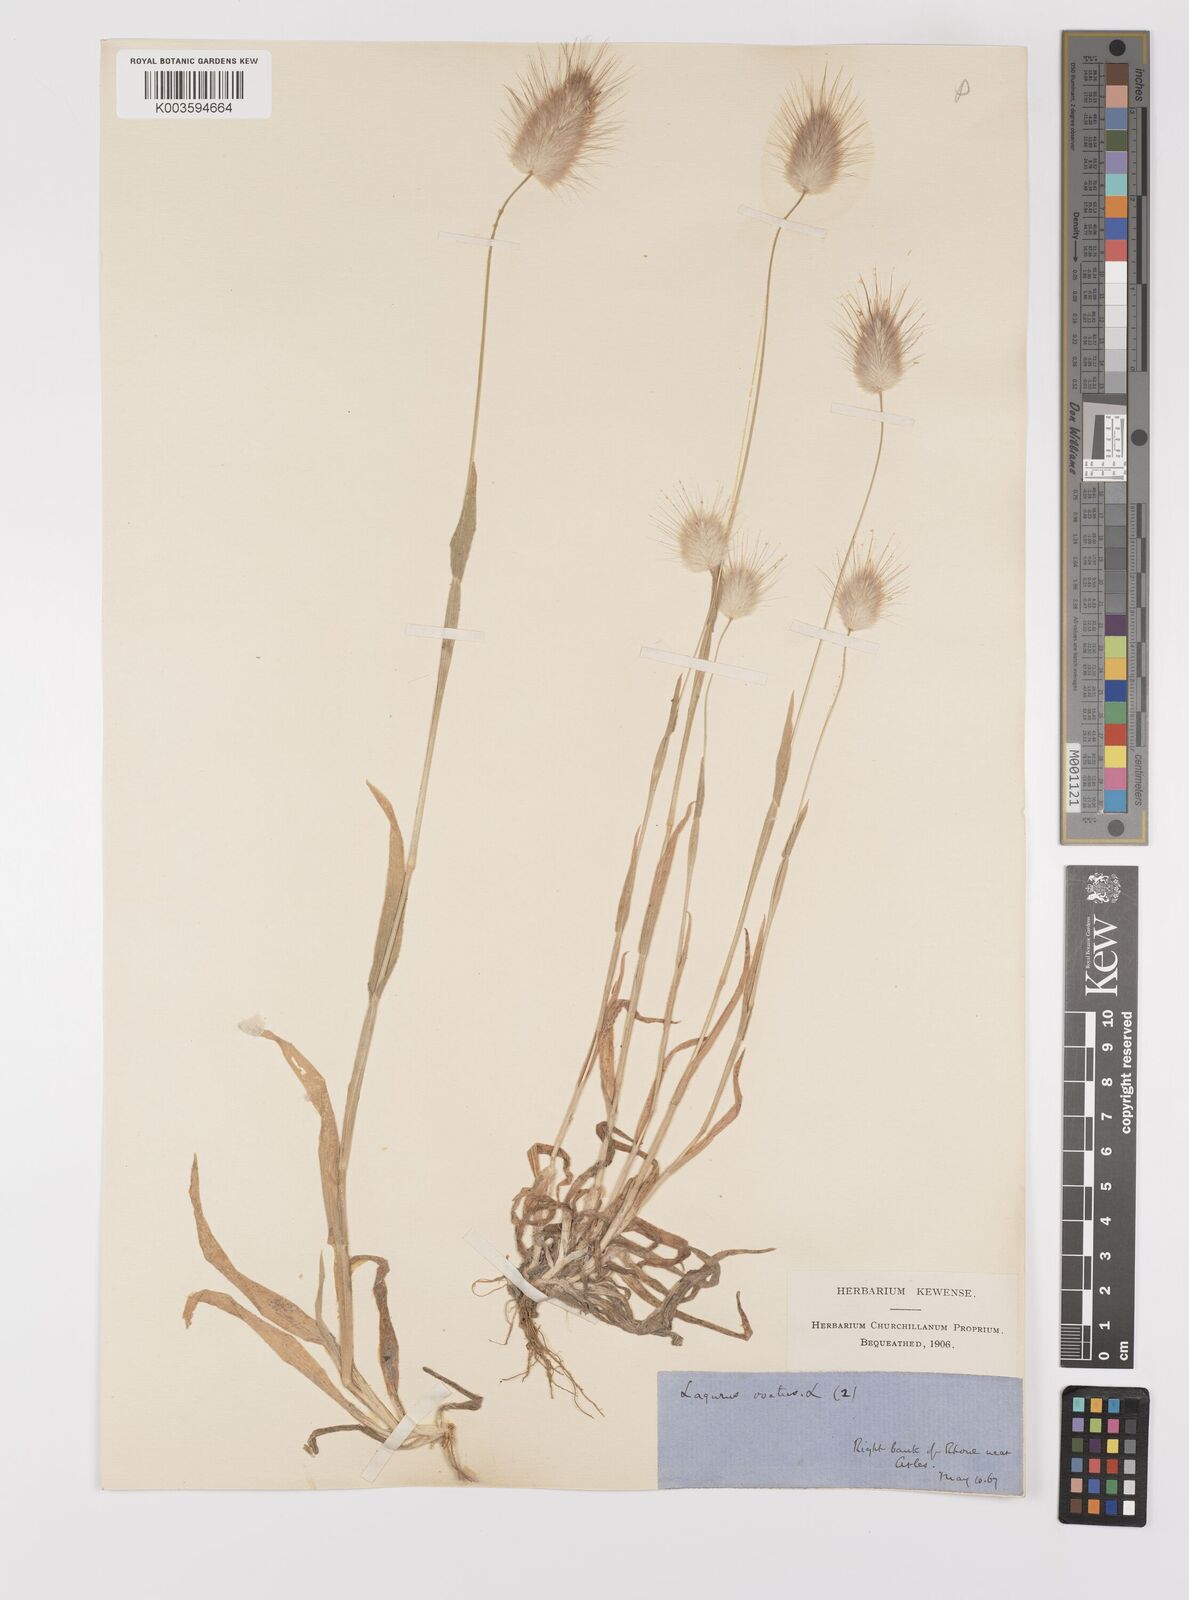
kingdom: Plantae
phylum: Tracheophyta
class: Liliopsida
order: Poales
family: Poaceae
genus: Lagurus
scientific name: Lagurus ovatus
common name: Hare's-tail
